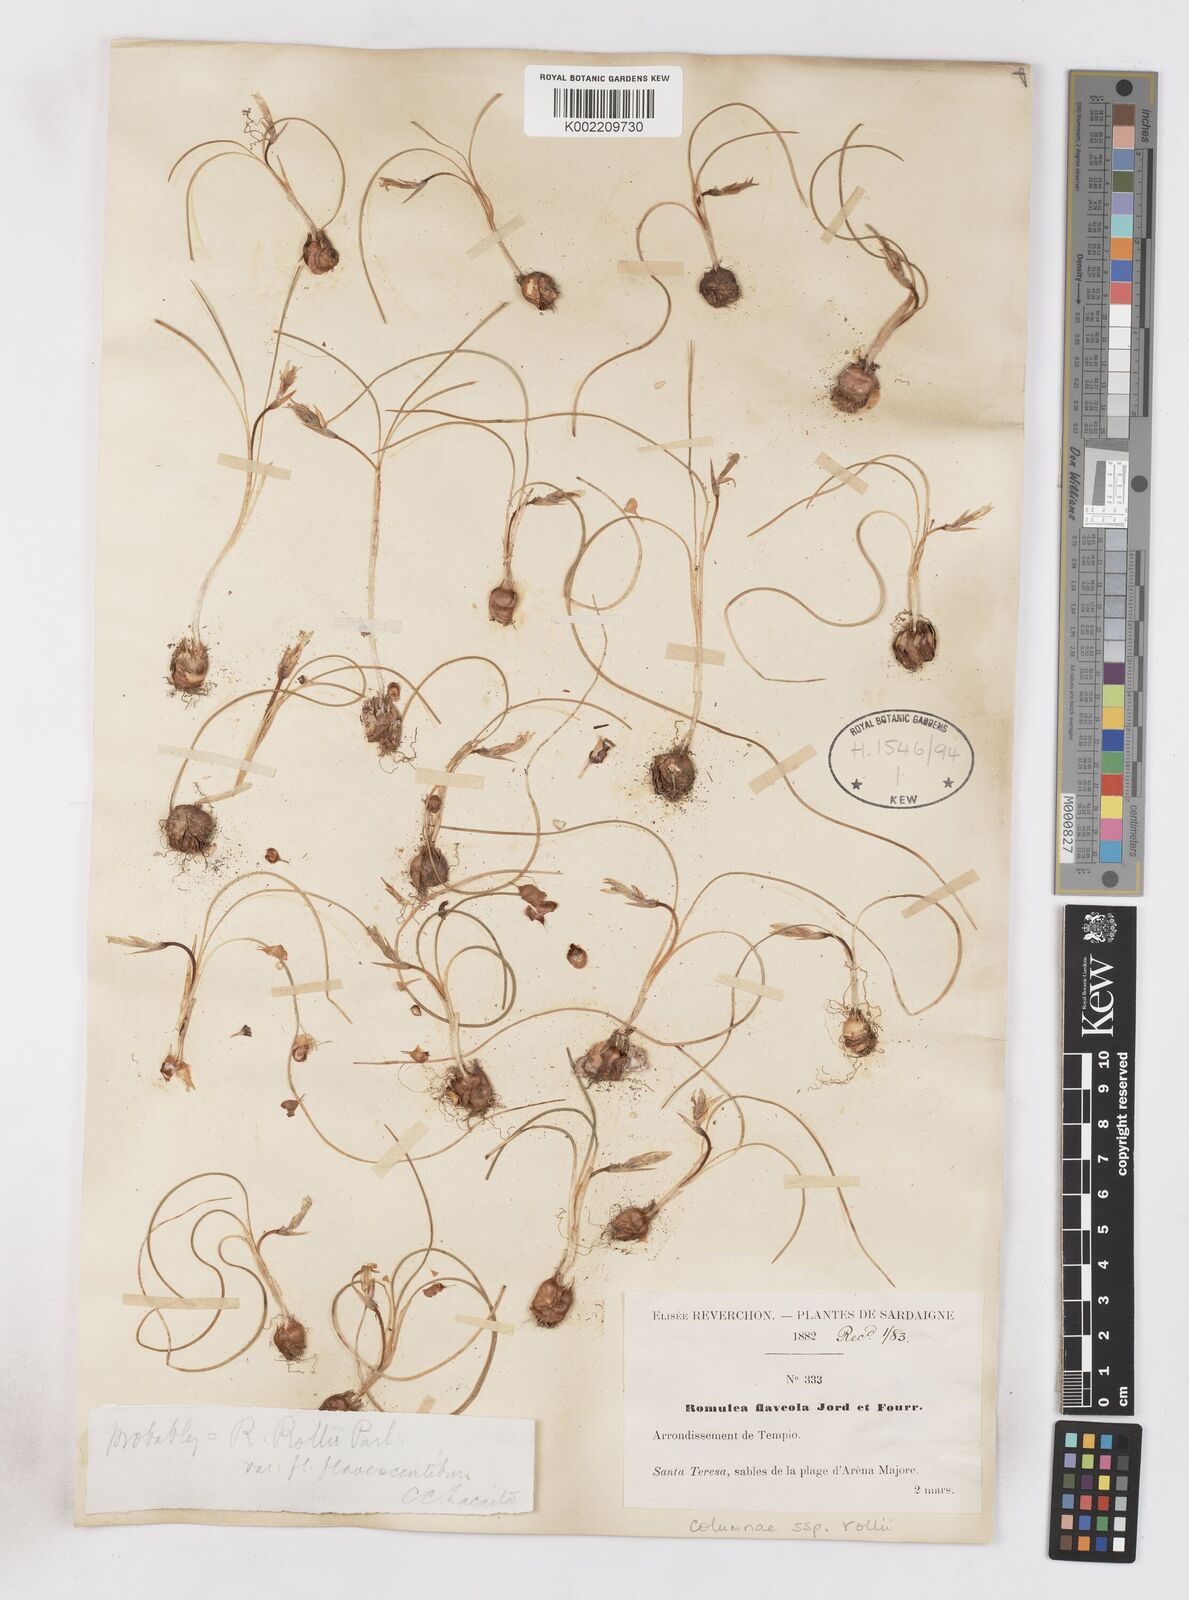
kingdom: Plantae
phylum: Tracheophyta
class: Liliopsida
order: Asparagales
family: Iridaceae
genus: Romulea
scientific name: Romulea columnae
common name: Sand-crocus
